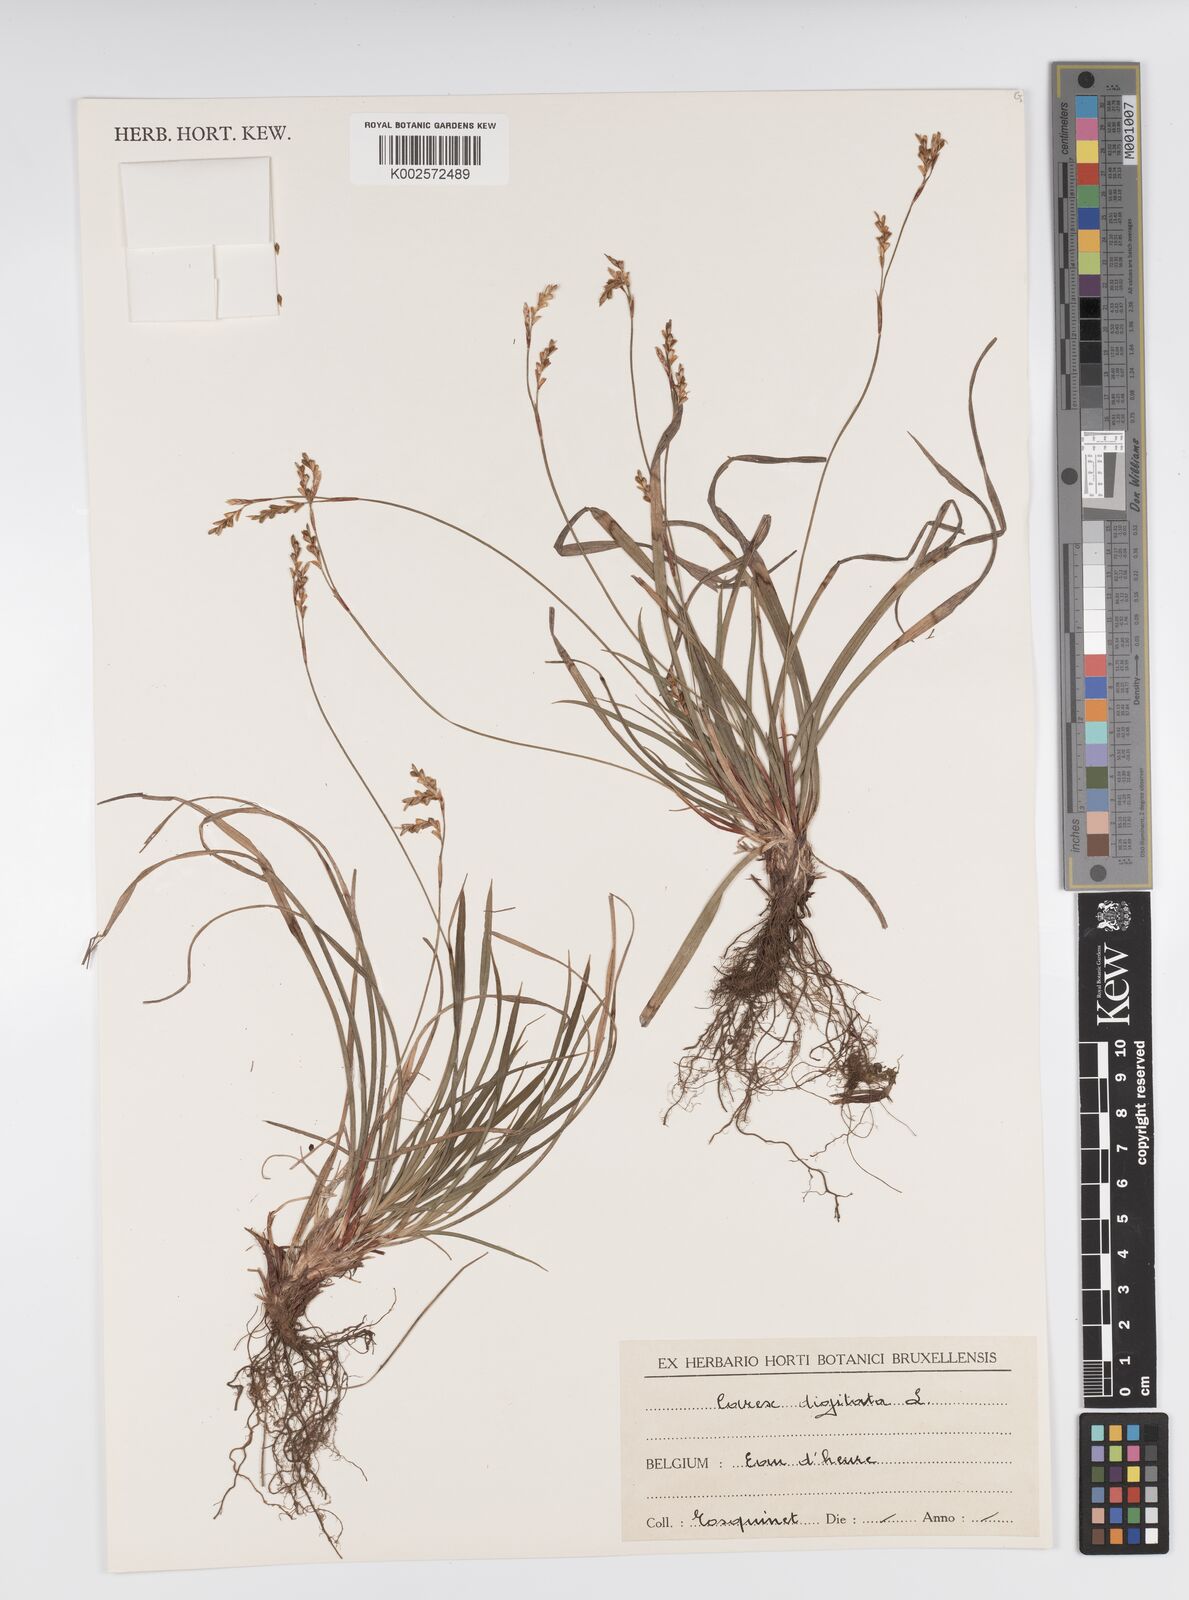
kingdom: Plantae
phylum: Tracheophyta
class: Liliopsida
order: Poales
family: Cyperaceae
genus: Carex
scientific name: Carex digitata
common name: Fingered sedge
